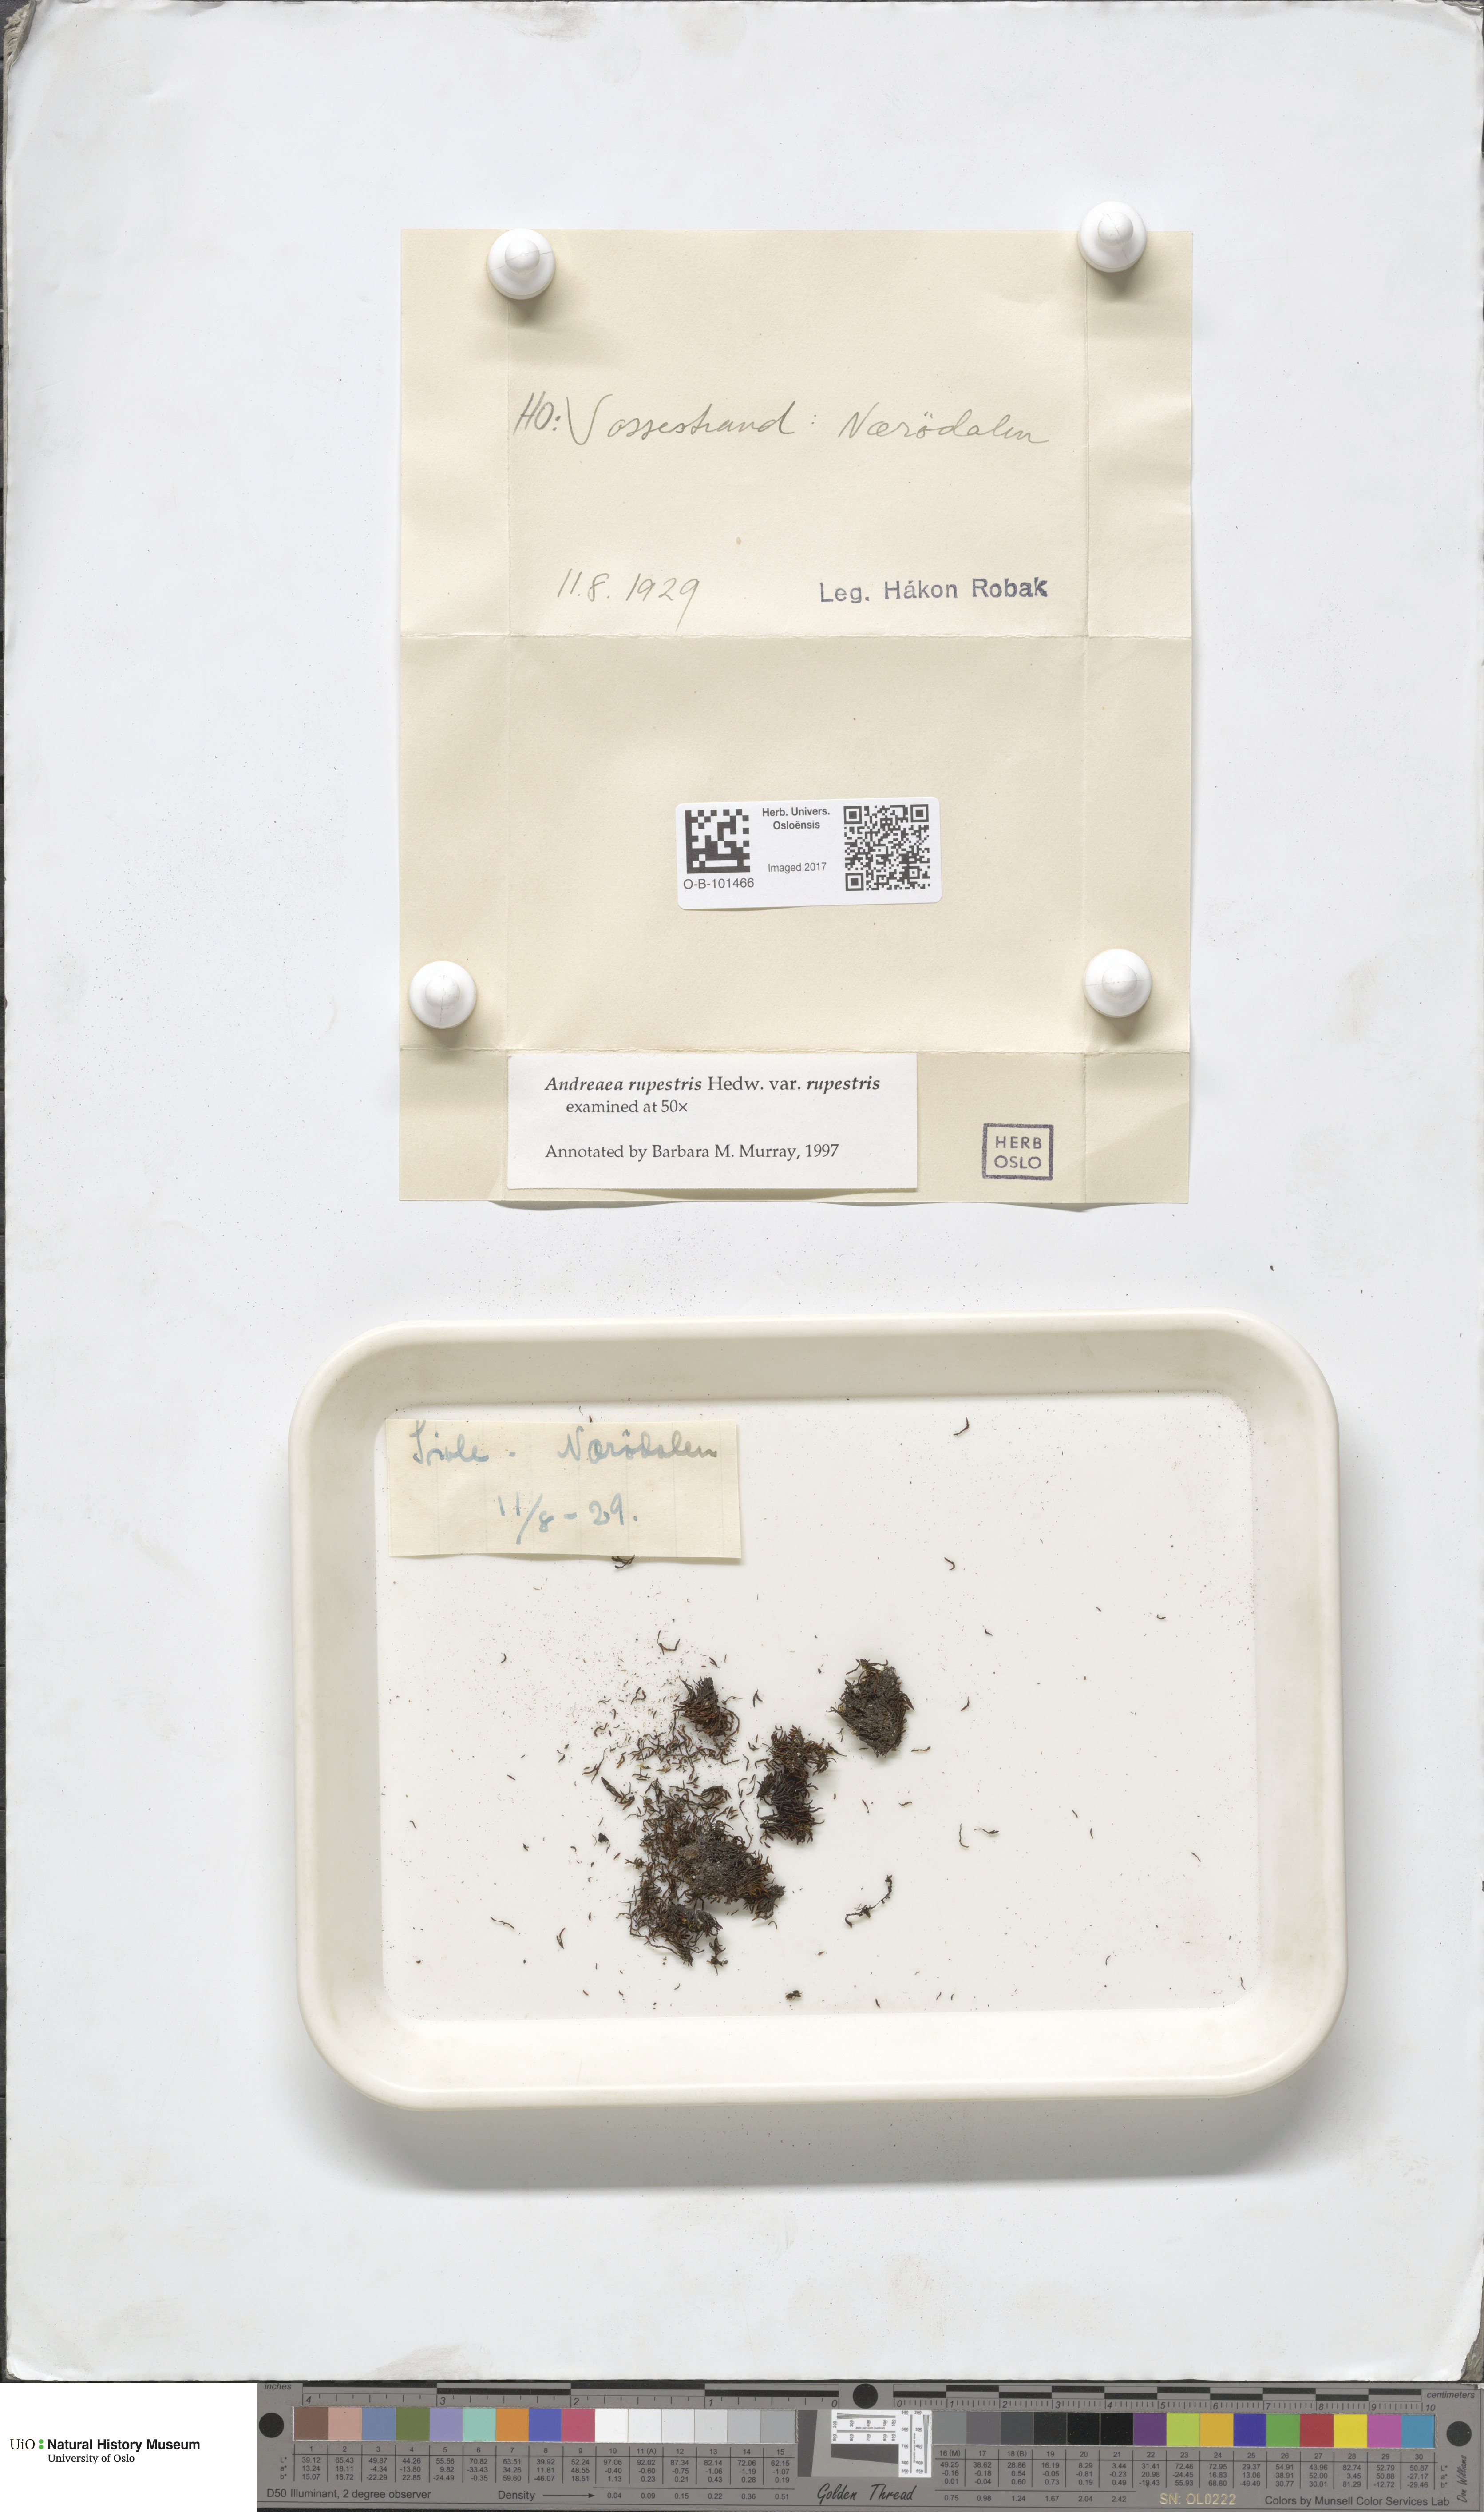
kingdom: Plantae
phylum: Bryophyta
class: Andreaeopsida
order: Andreaeales
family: Andreaeaceae
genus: Andreaea
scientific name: Andreaea rupestris
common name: Black rock moss
